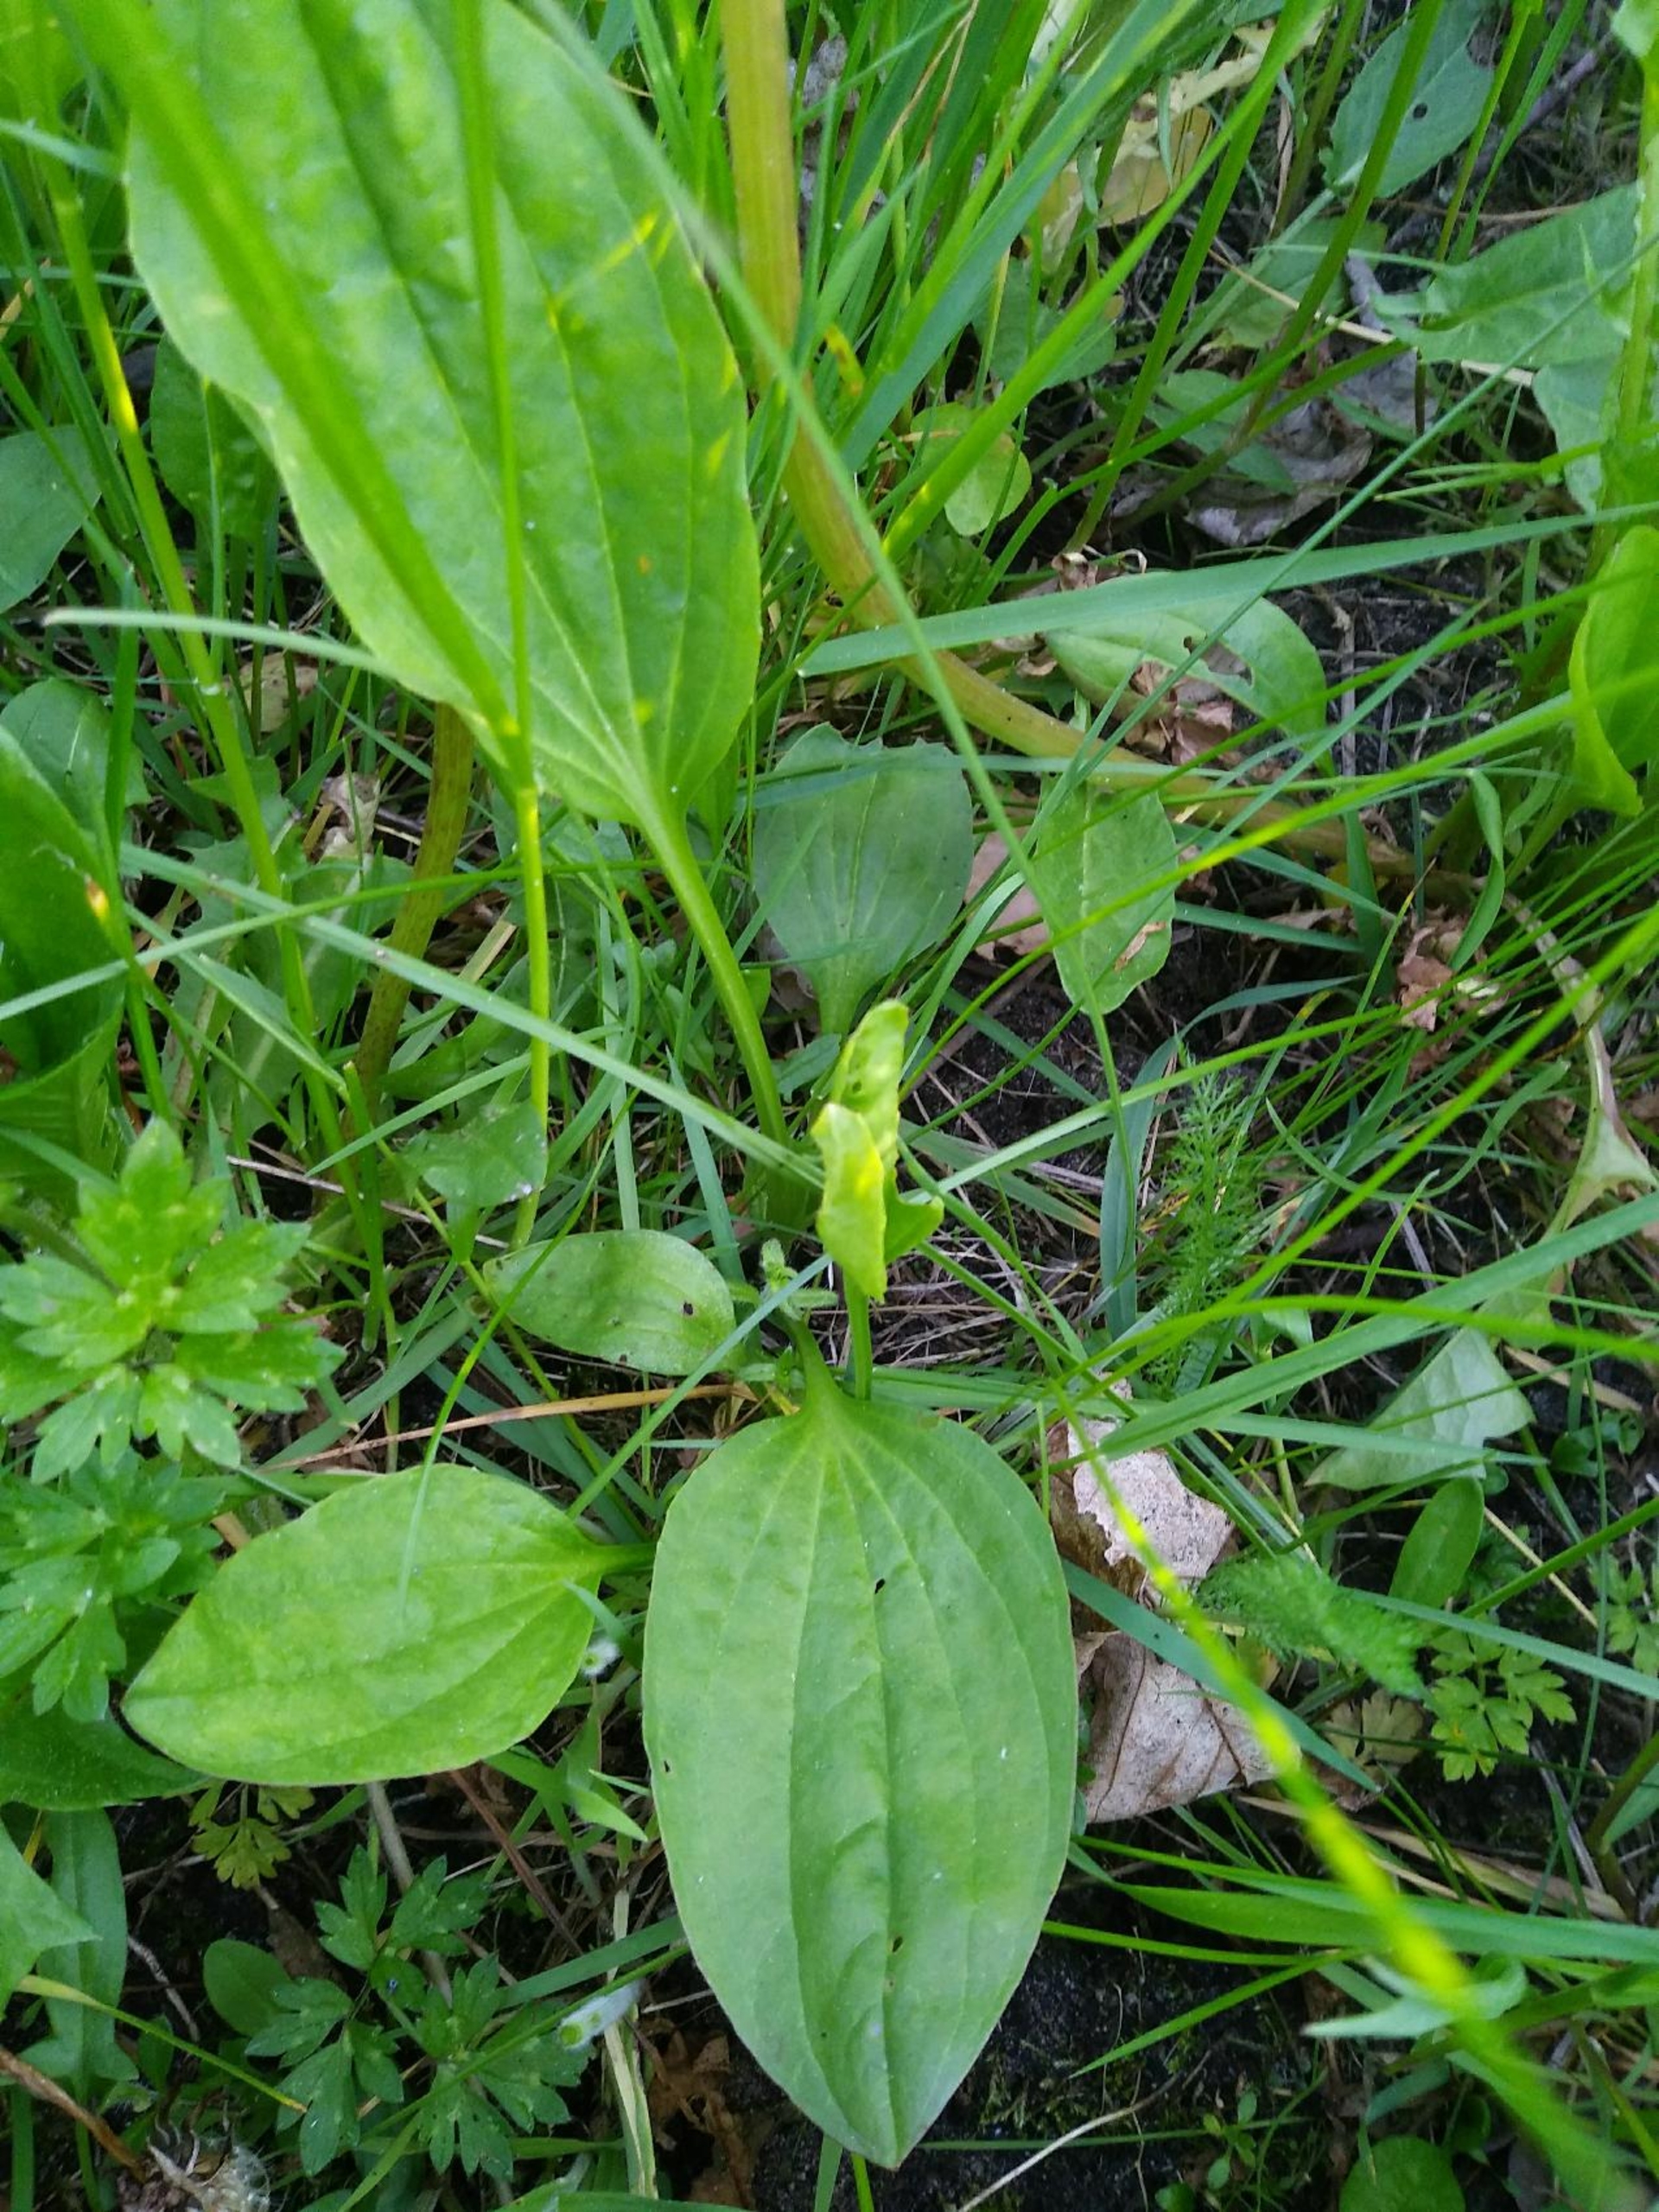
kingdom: Plantae
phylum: Tracheophyta
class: Magnoliopsida
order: Lamiales
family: Plantaginaceae
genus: Plantago
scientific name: Plantago major
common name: Glat vejbred
